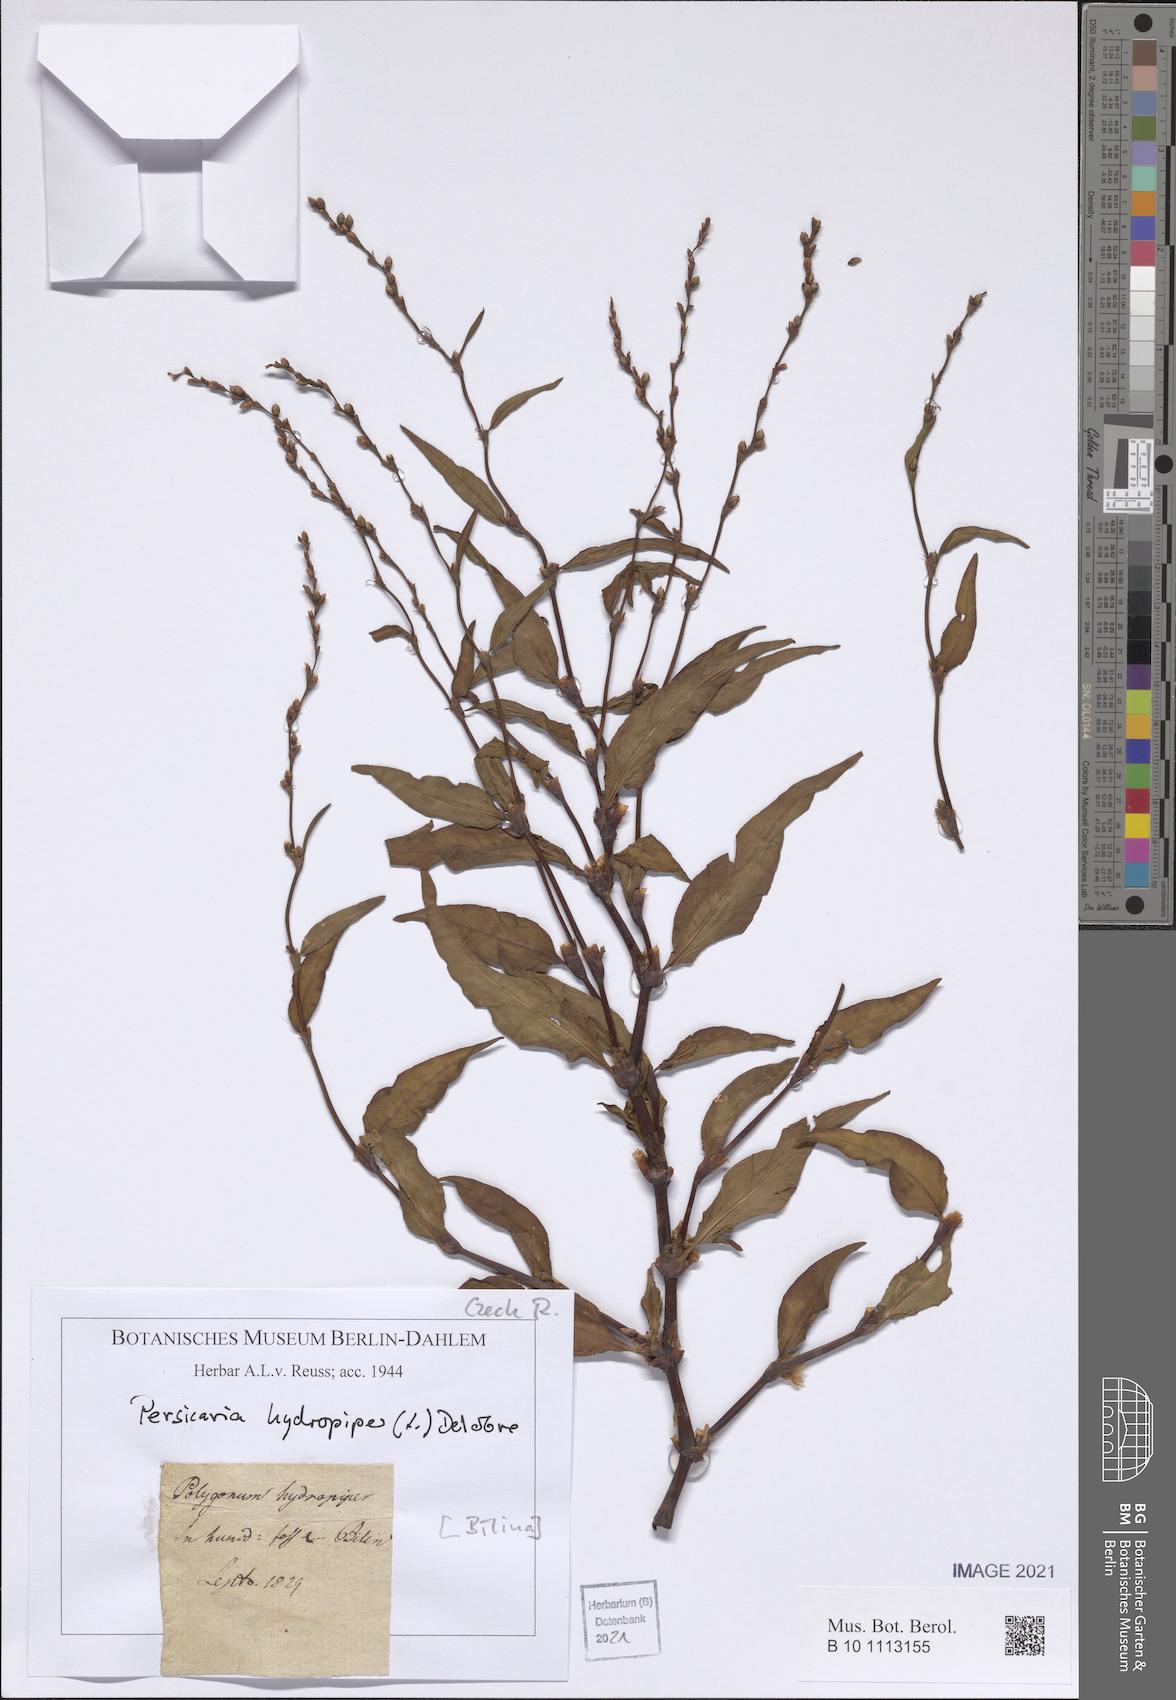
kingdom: Plantae
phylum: Tracheophyta
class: Magnoliopsida
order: Caryophyllales
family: Polygonaceae
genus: Persicaria
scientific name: Persicaria hydropiper
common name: Water-pepper
